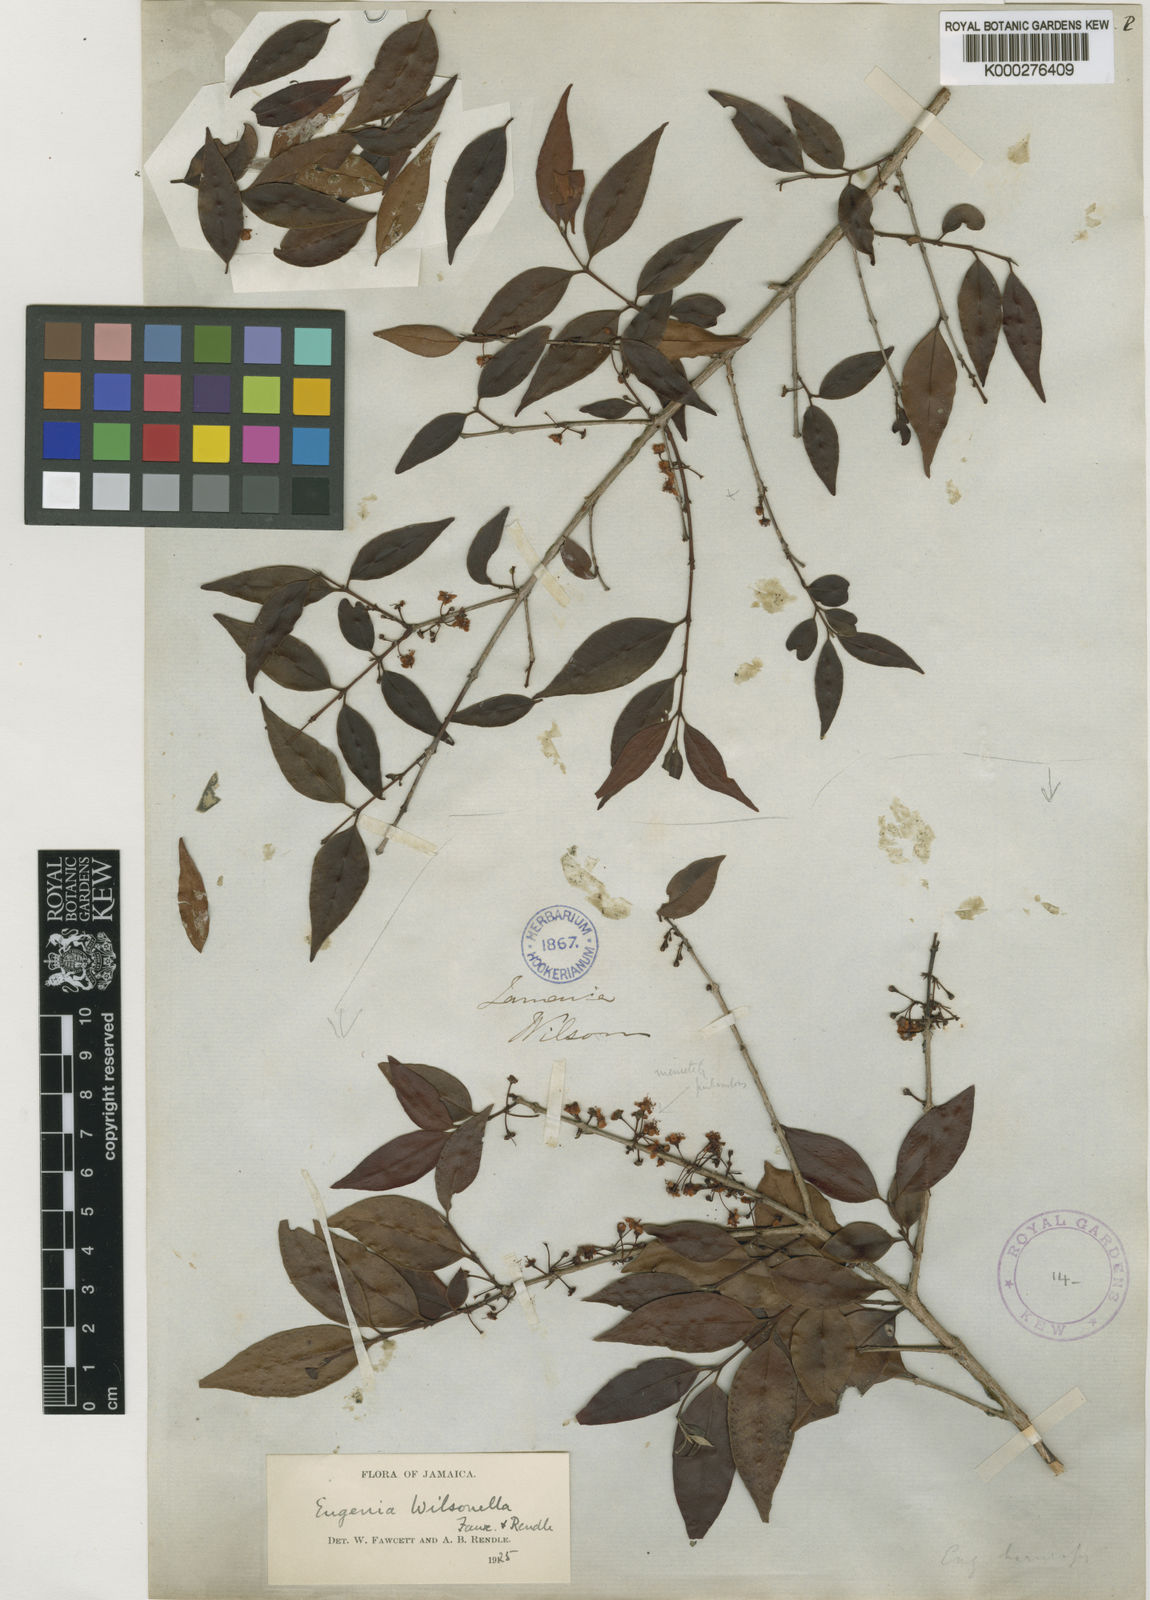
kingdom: Plantae
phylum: Tracheophyta
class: Magnoliopsida
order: Myrtales
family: Myrtaceae
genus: Eugenia
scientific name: Eugenia wilsonella
